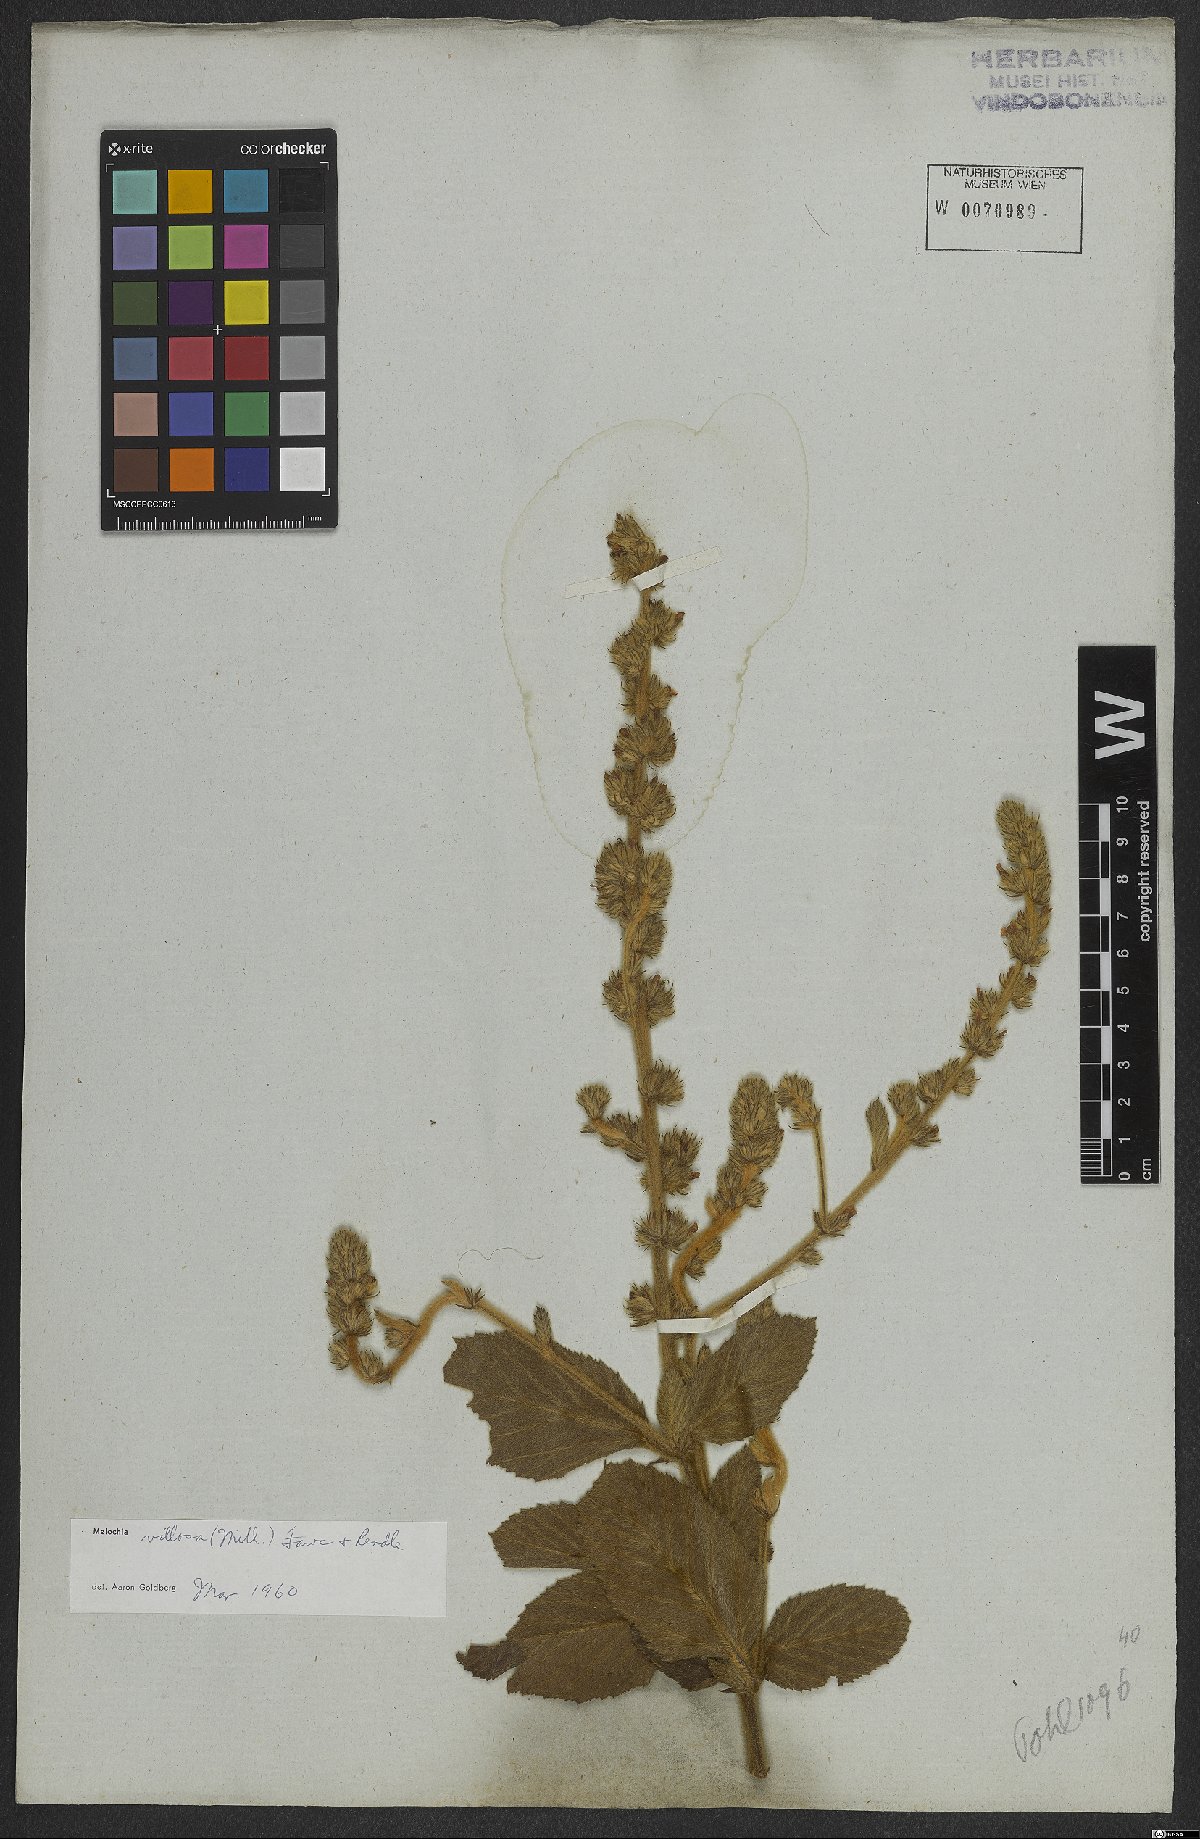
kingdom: Plantae
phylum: Tracheophyta
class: Magnoliopsida
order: Malvales
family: Malvaceae
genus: Melochia
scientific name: Melochia spicata
